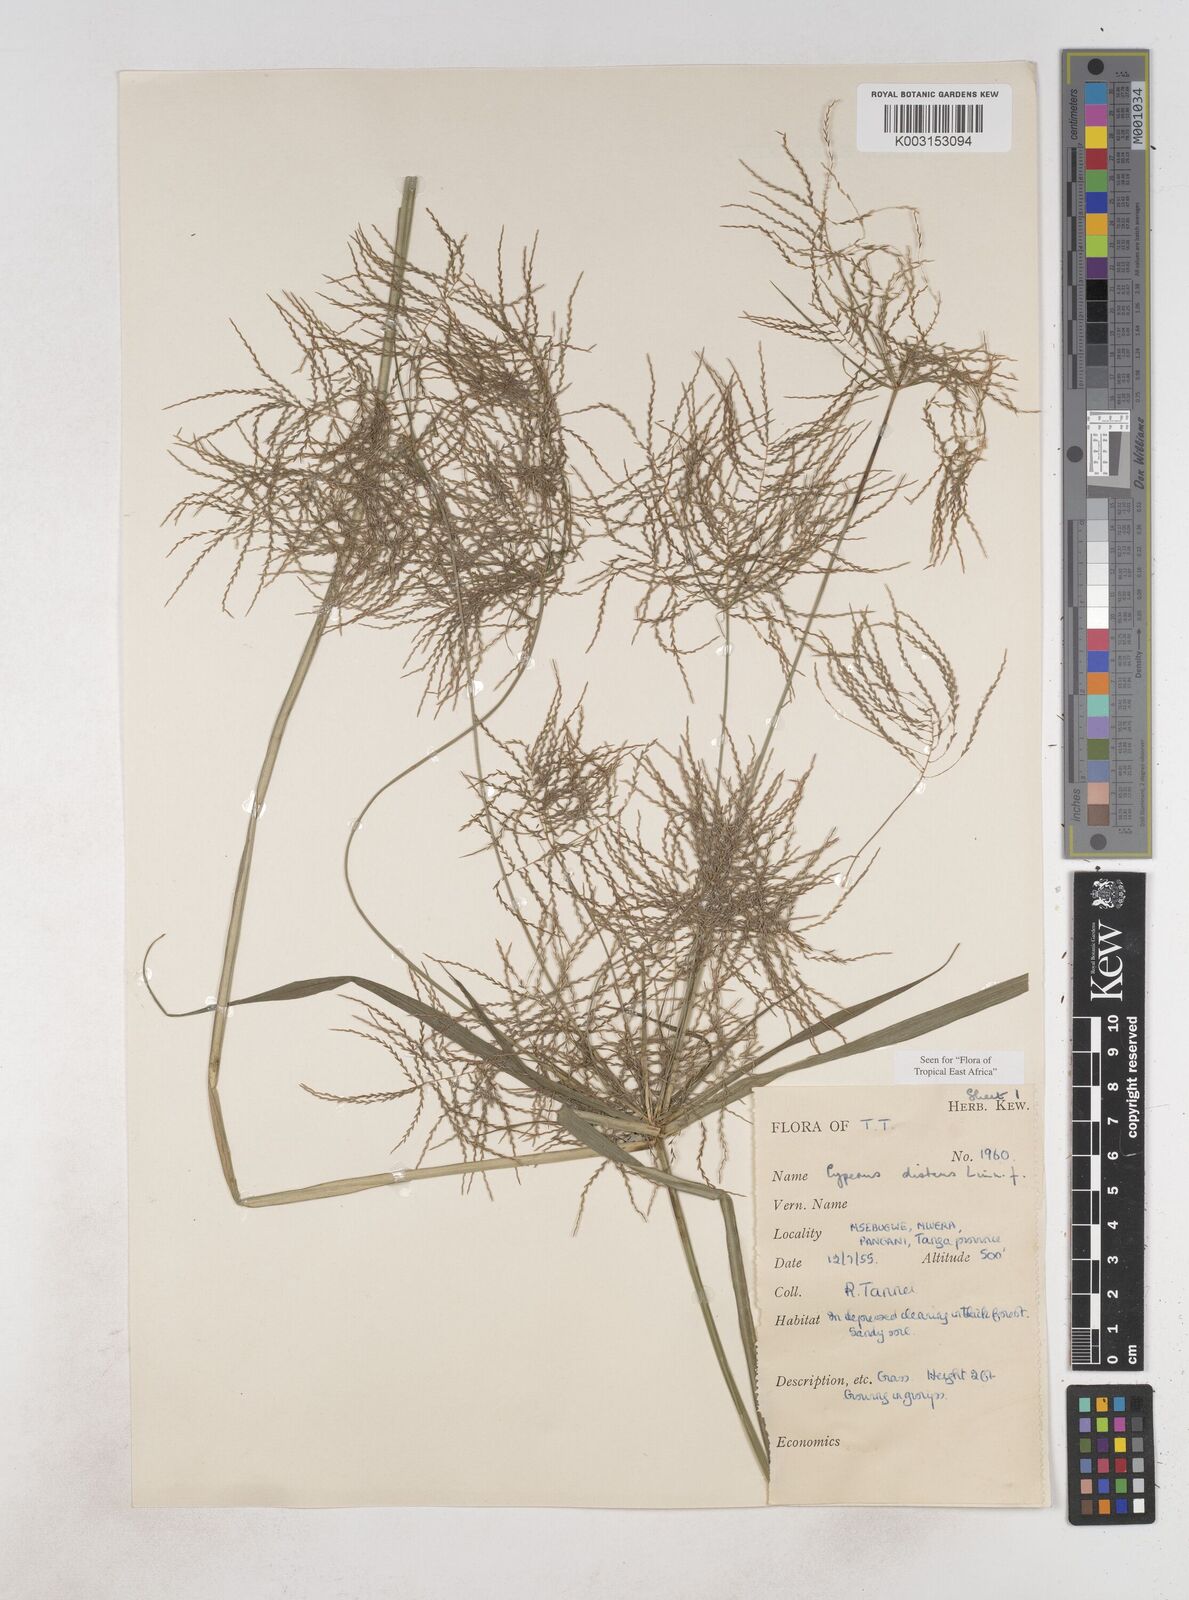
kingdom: Plantae
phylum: Tracheophyta
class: Liliopsida
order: Poales
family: Cyperaceae
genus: Cyperus
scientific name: Cyperus distans
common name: Slender cyperus
